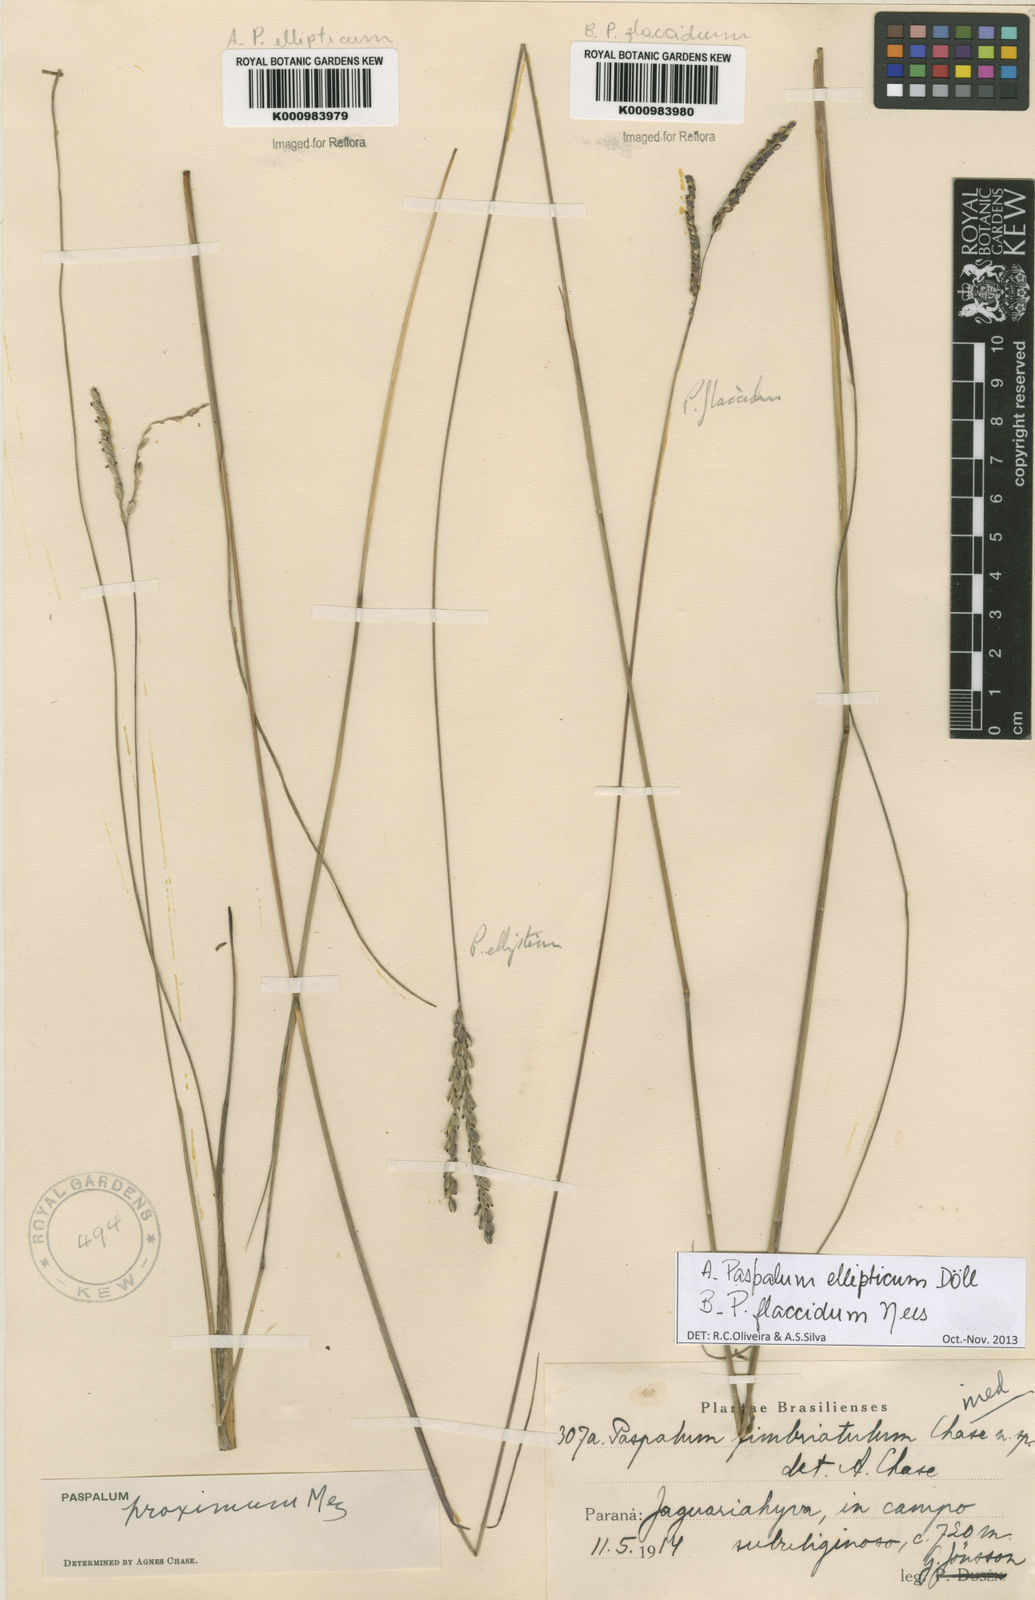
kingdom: Plantae
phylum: Tracheophyta
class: Liliopsida
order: Poales
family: Poaceae
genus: Paspalum
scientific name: Paspalum
